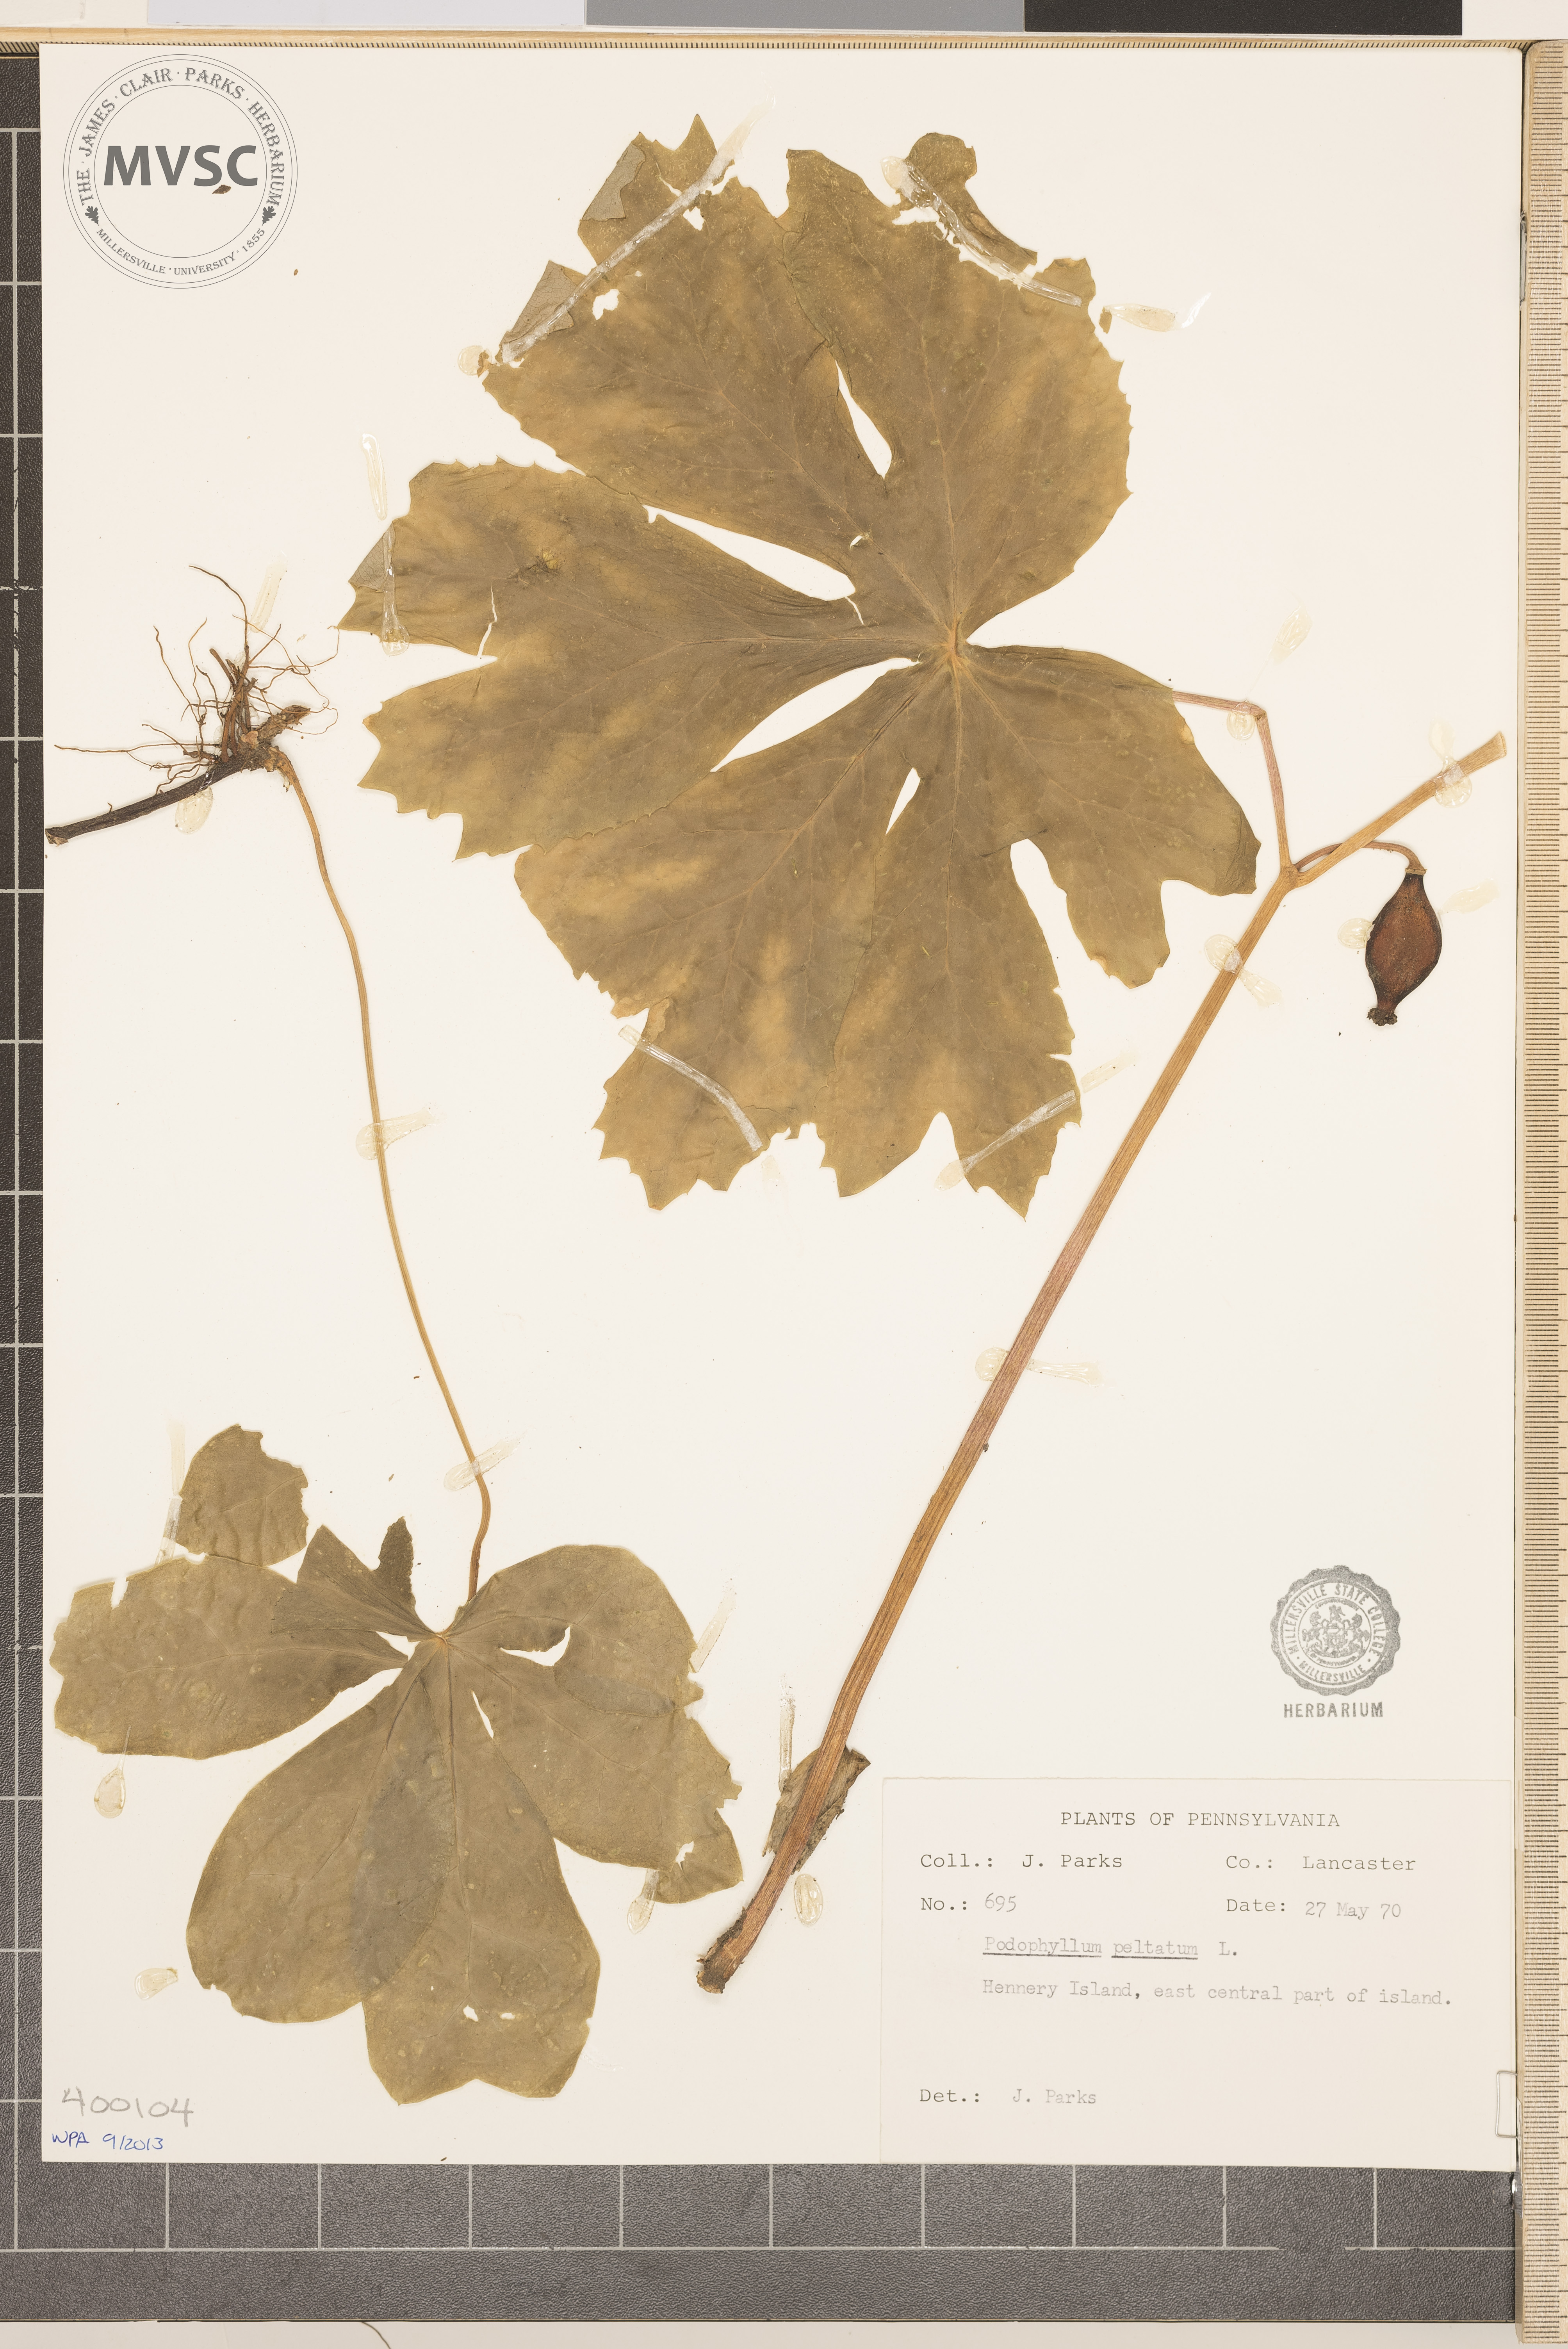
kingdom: Plantae
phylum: Tracheophyta
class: Magnoliopsida
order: Ranunculales
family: Berberidaceae
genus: Podophyllum
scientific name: Podophyllum peltatum
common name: May-apple
